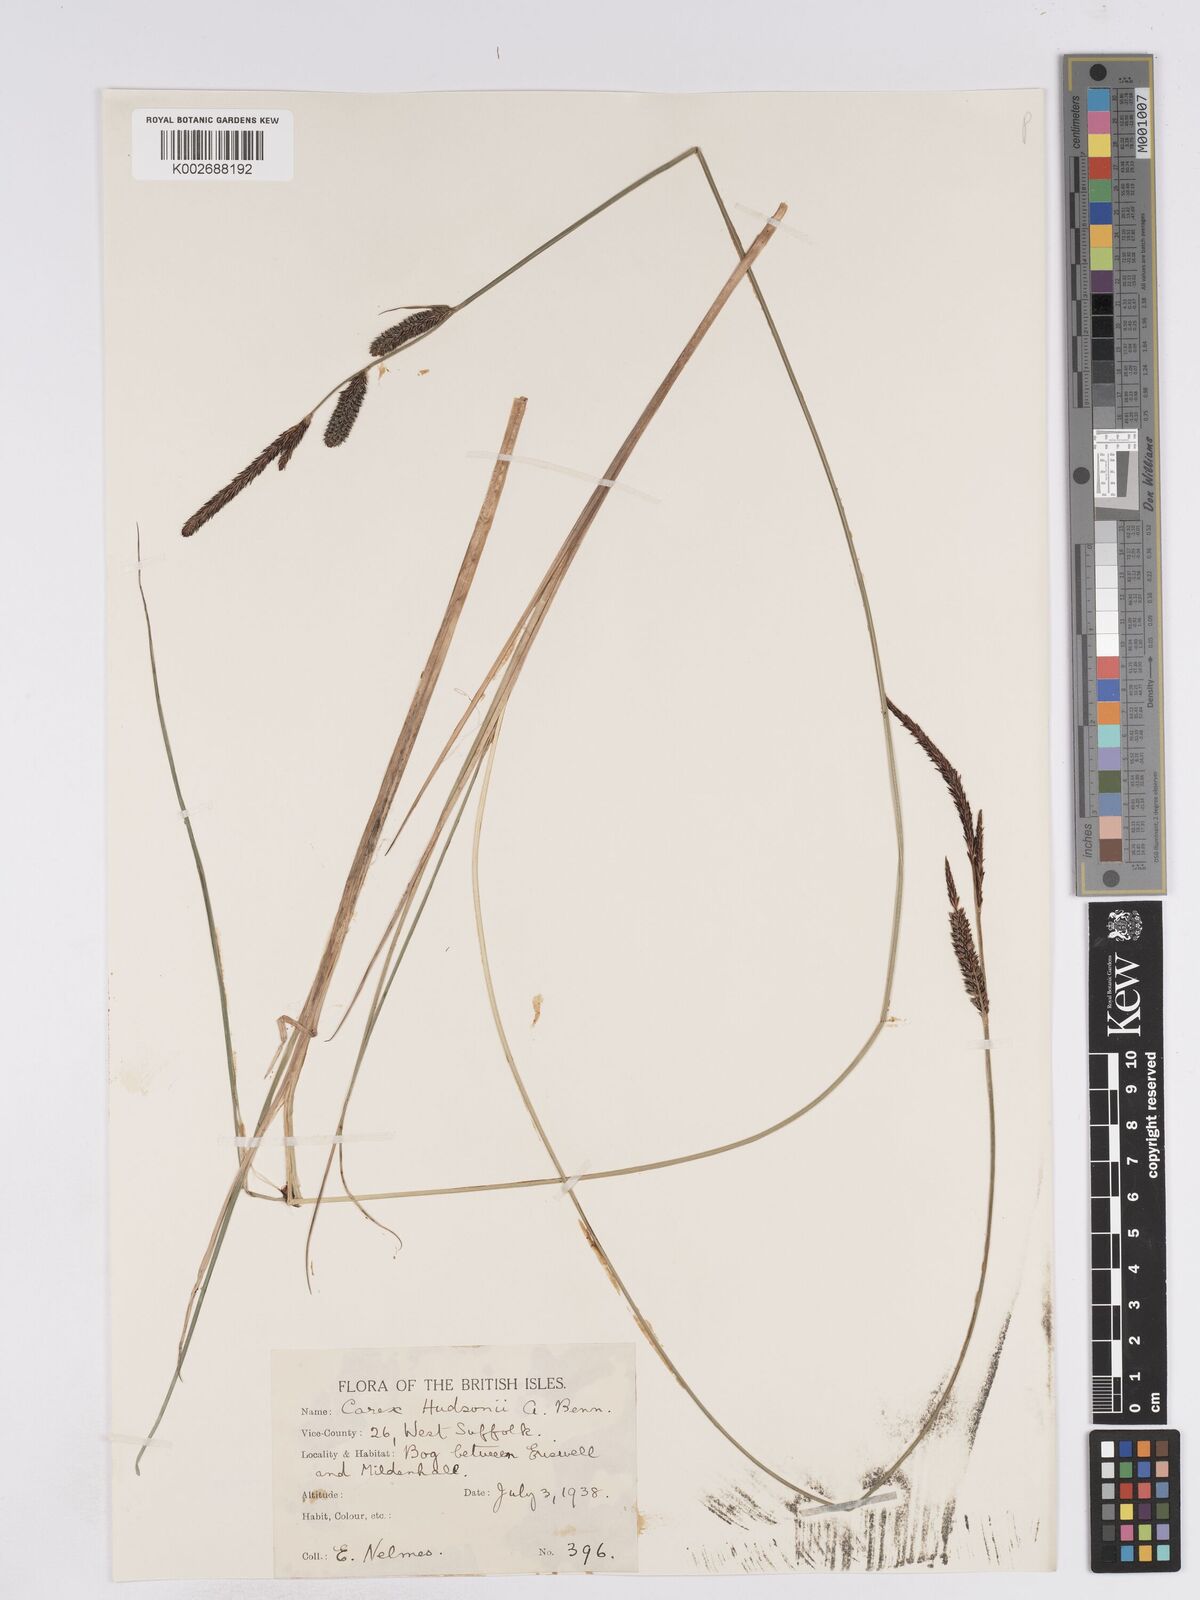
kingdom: Plantae
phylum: Tracheophyta
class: Liliopsida
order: Poales
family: Cyperaceae
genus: Carex
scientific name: Carex elata
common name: Tufted sedge
